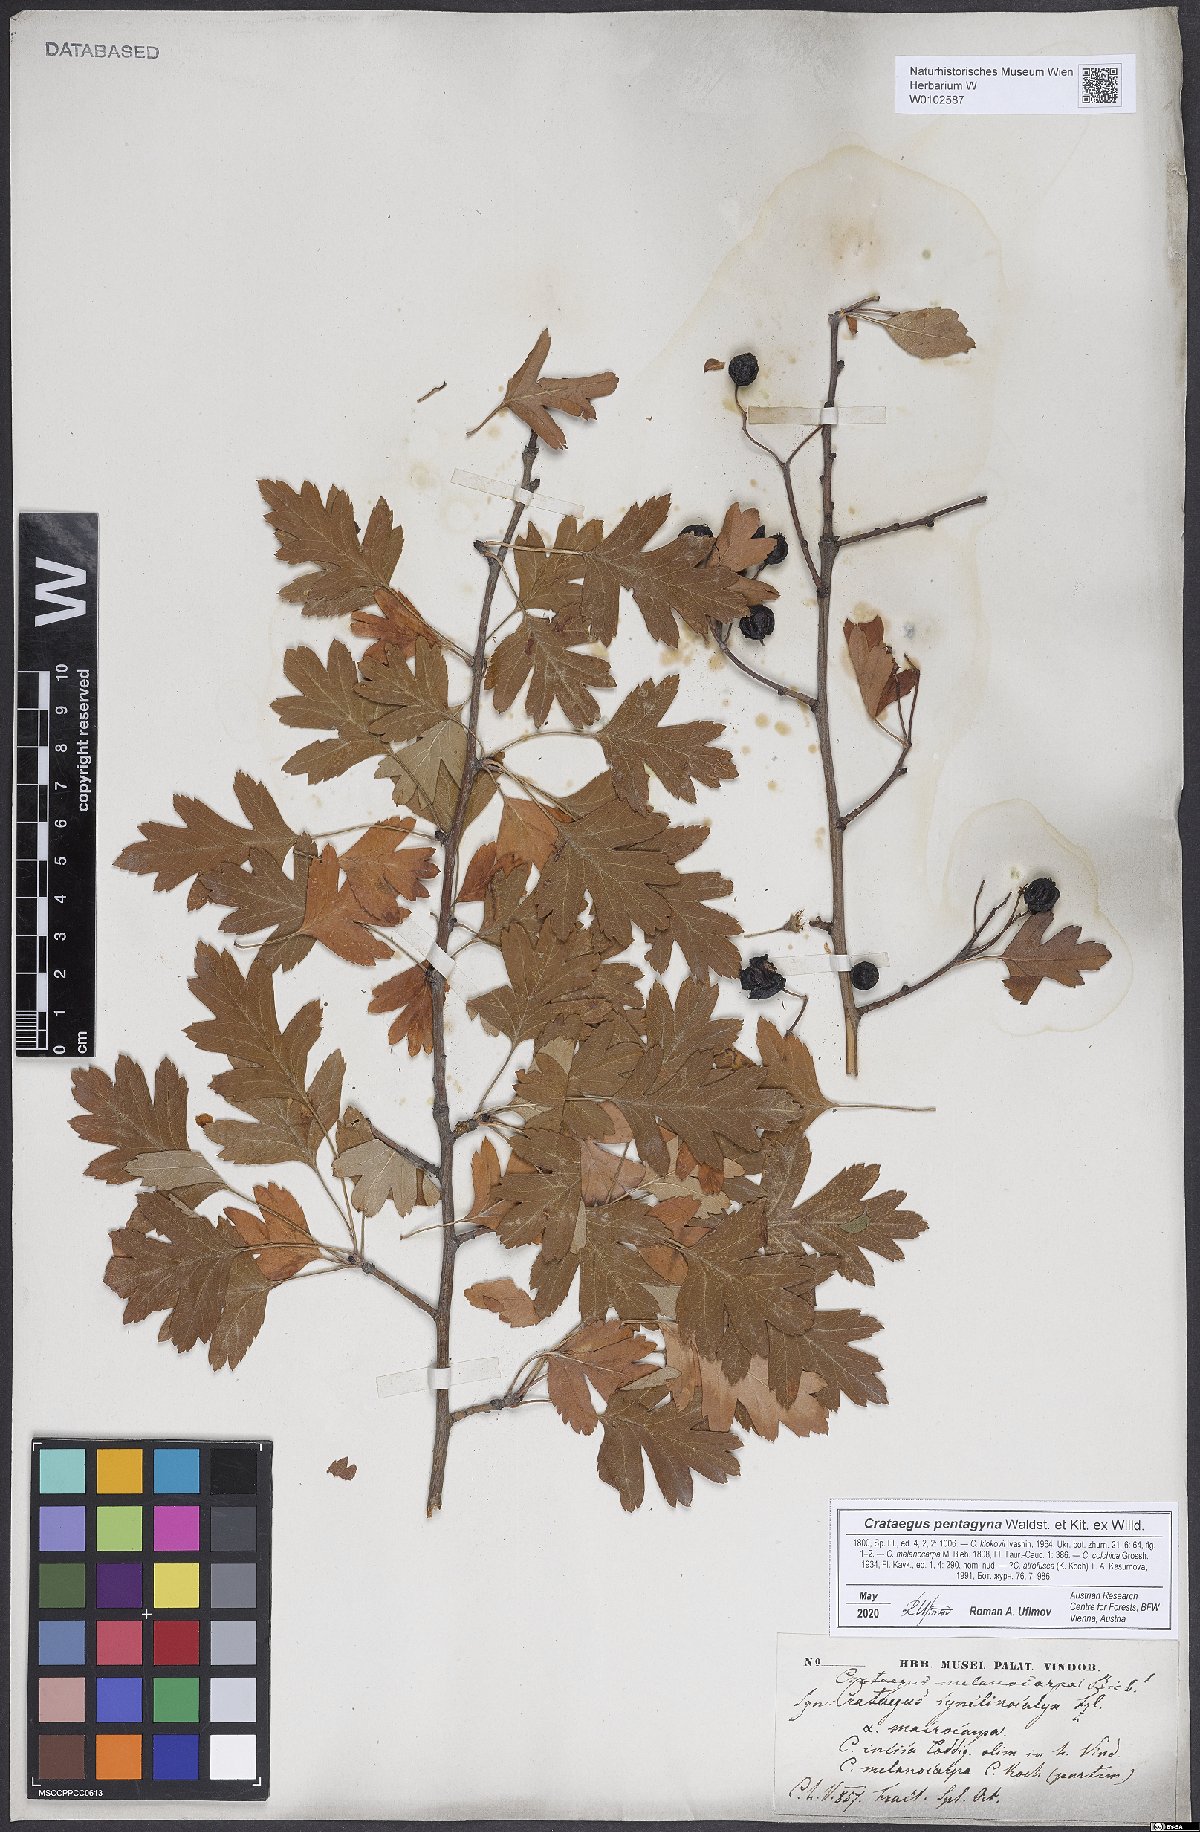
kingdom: Plantae
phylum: Tracheophyta
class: Magnoliopsida
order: Rosales
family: Rosaceae
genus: Crataegus
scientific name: Crataegus pentagyna
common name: Small-flowered black hawthorn
